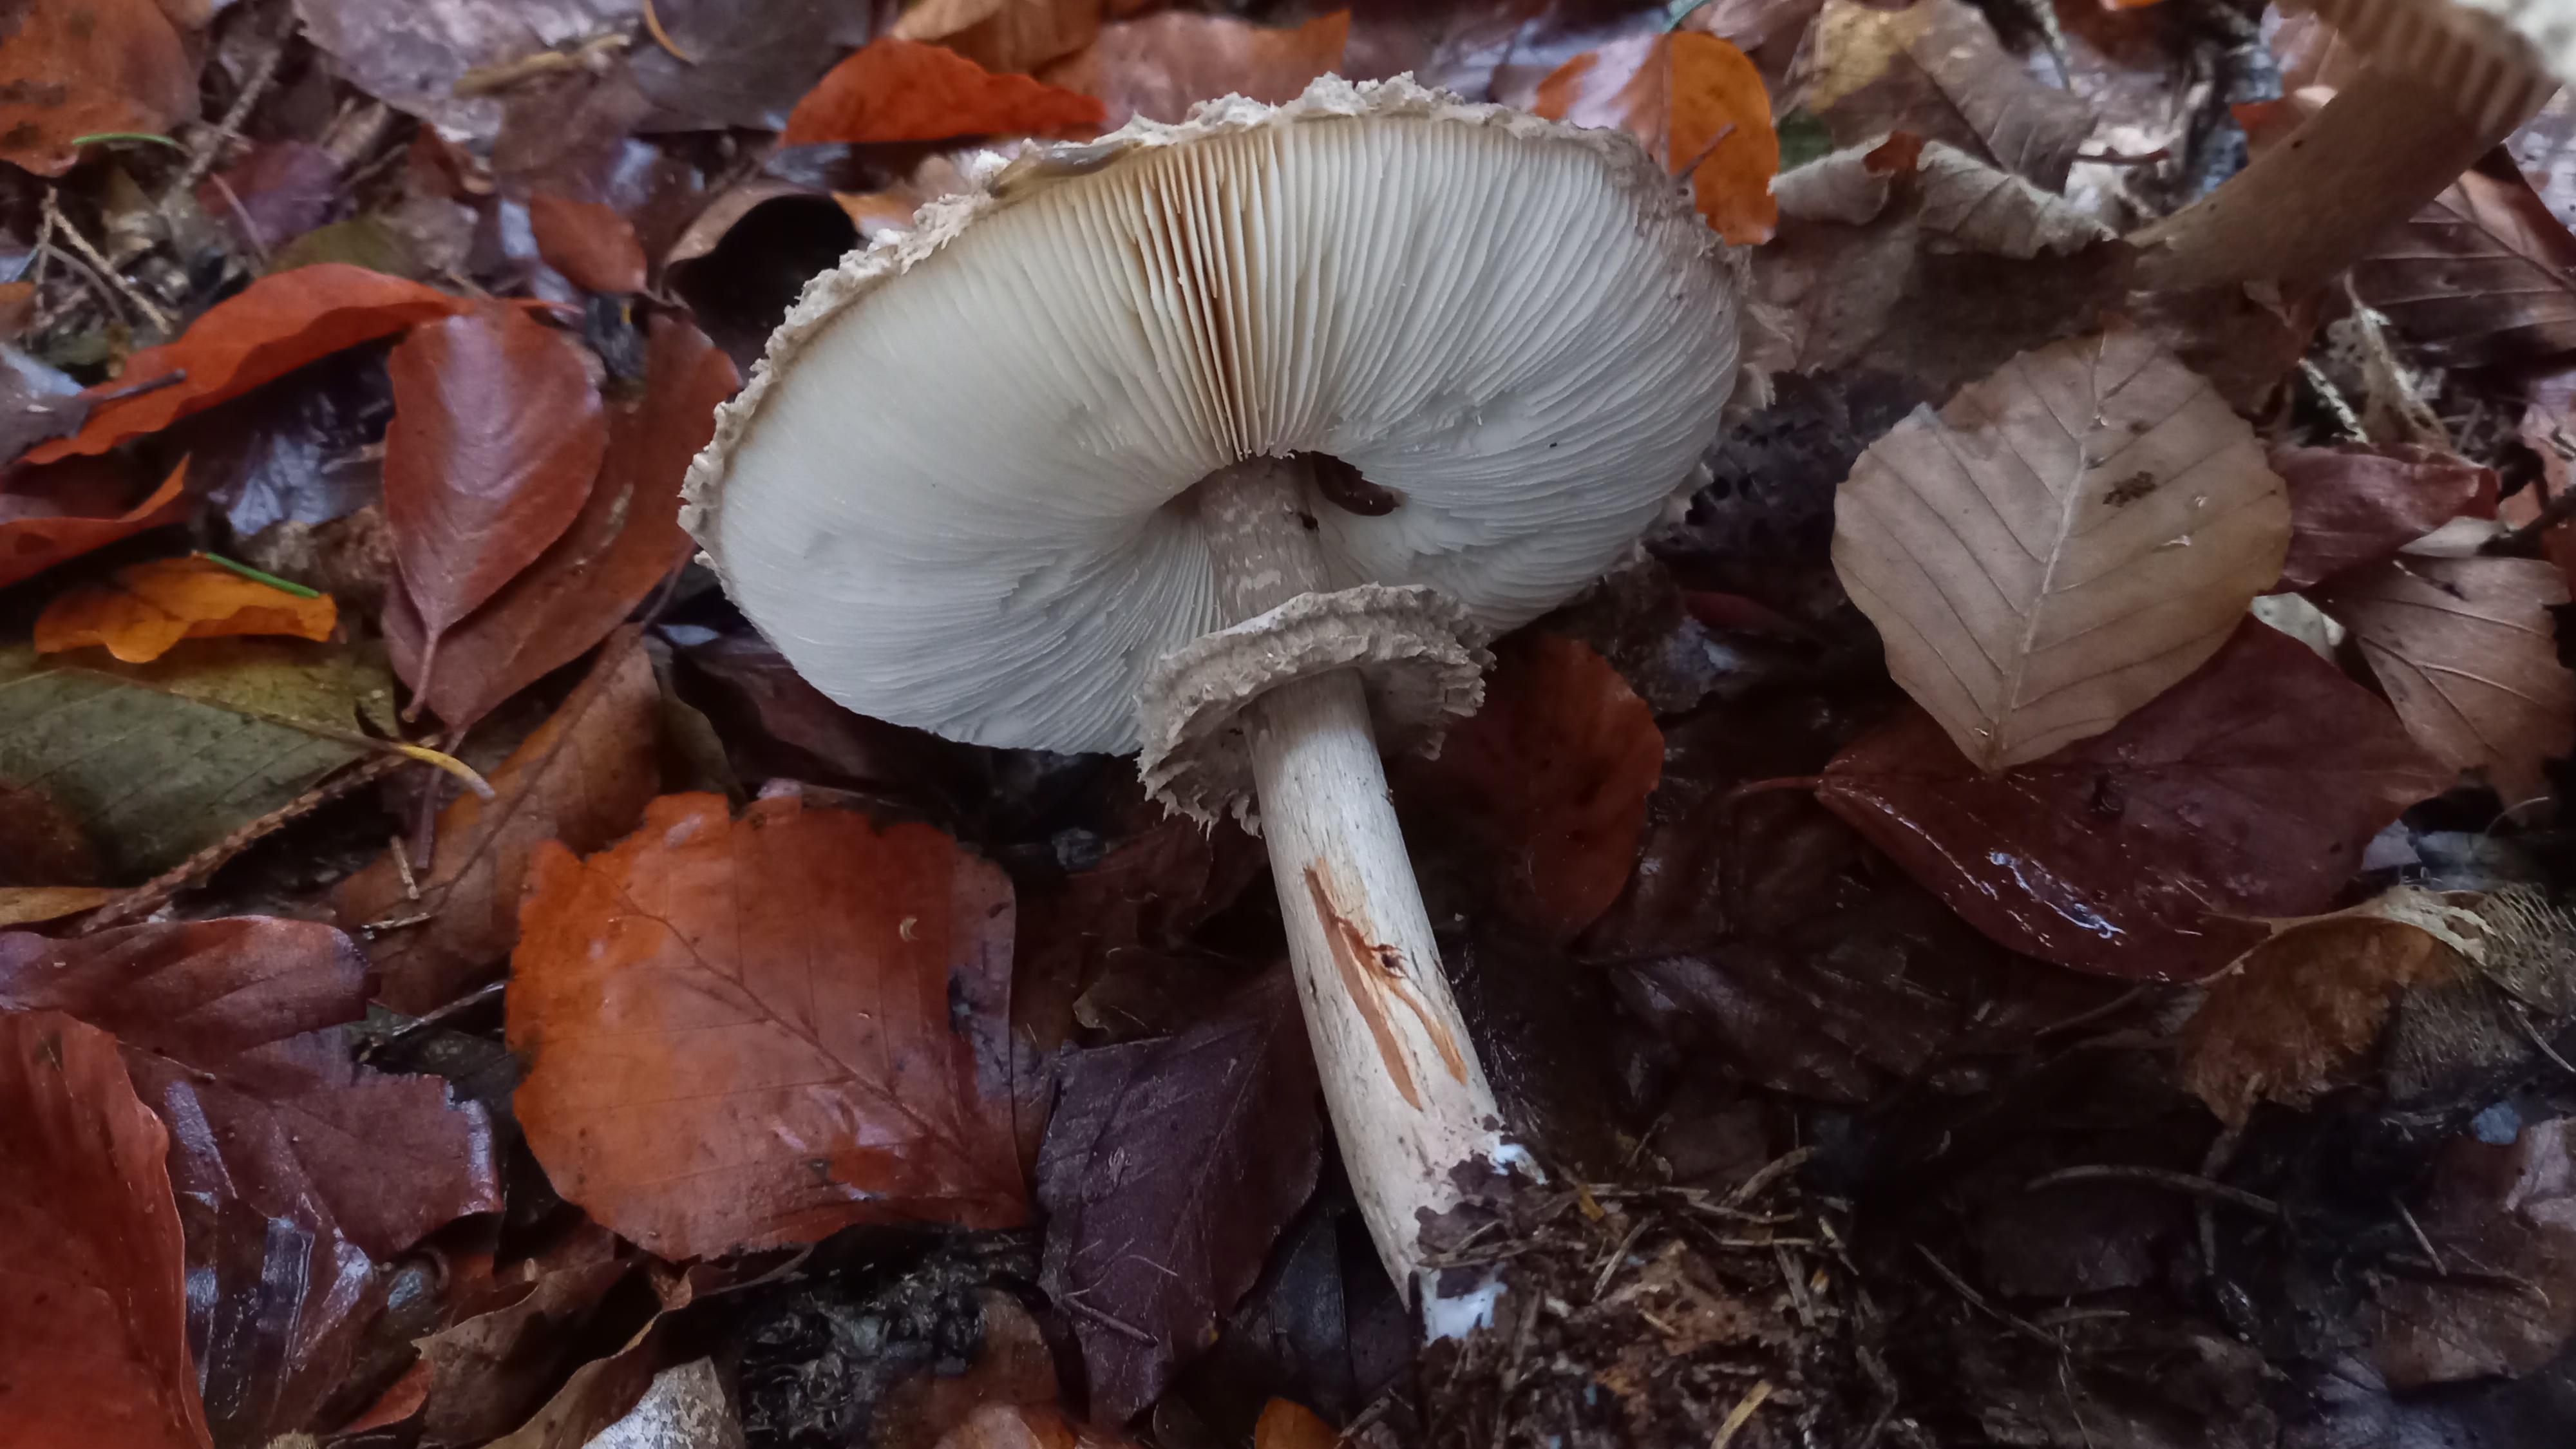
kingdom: Fungi
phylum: Basidiomycota
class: Agaricomycetes
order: Agaricales
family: Agaricaceae
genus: Chlorophyllum
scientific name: Chlorophyllum olivieri
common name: almindelig rabarberhat
